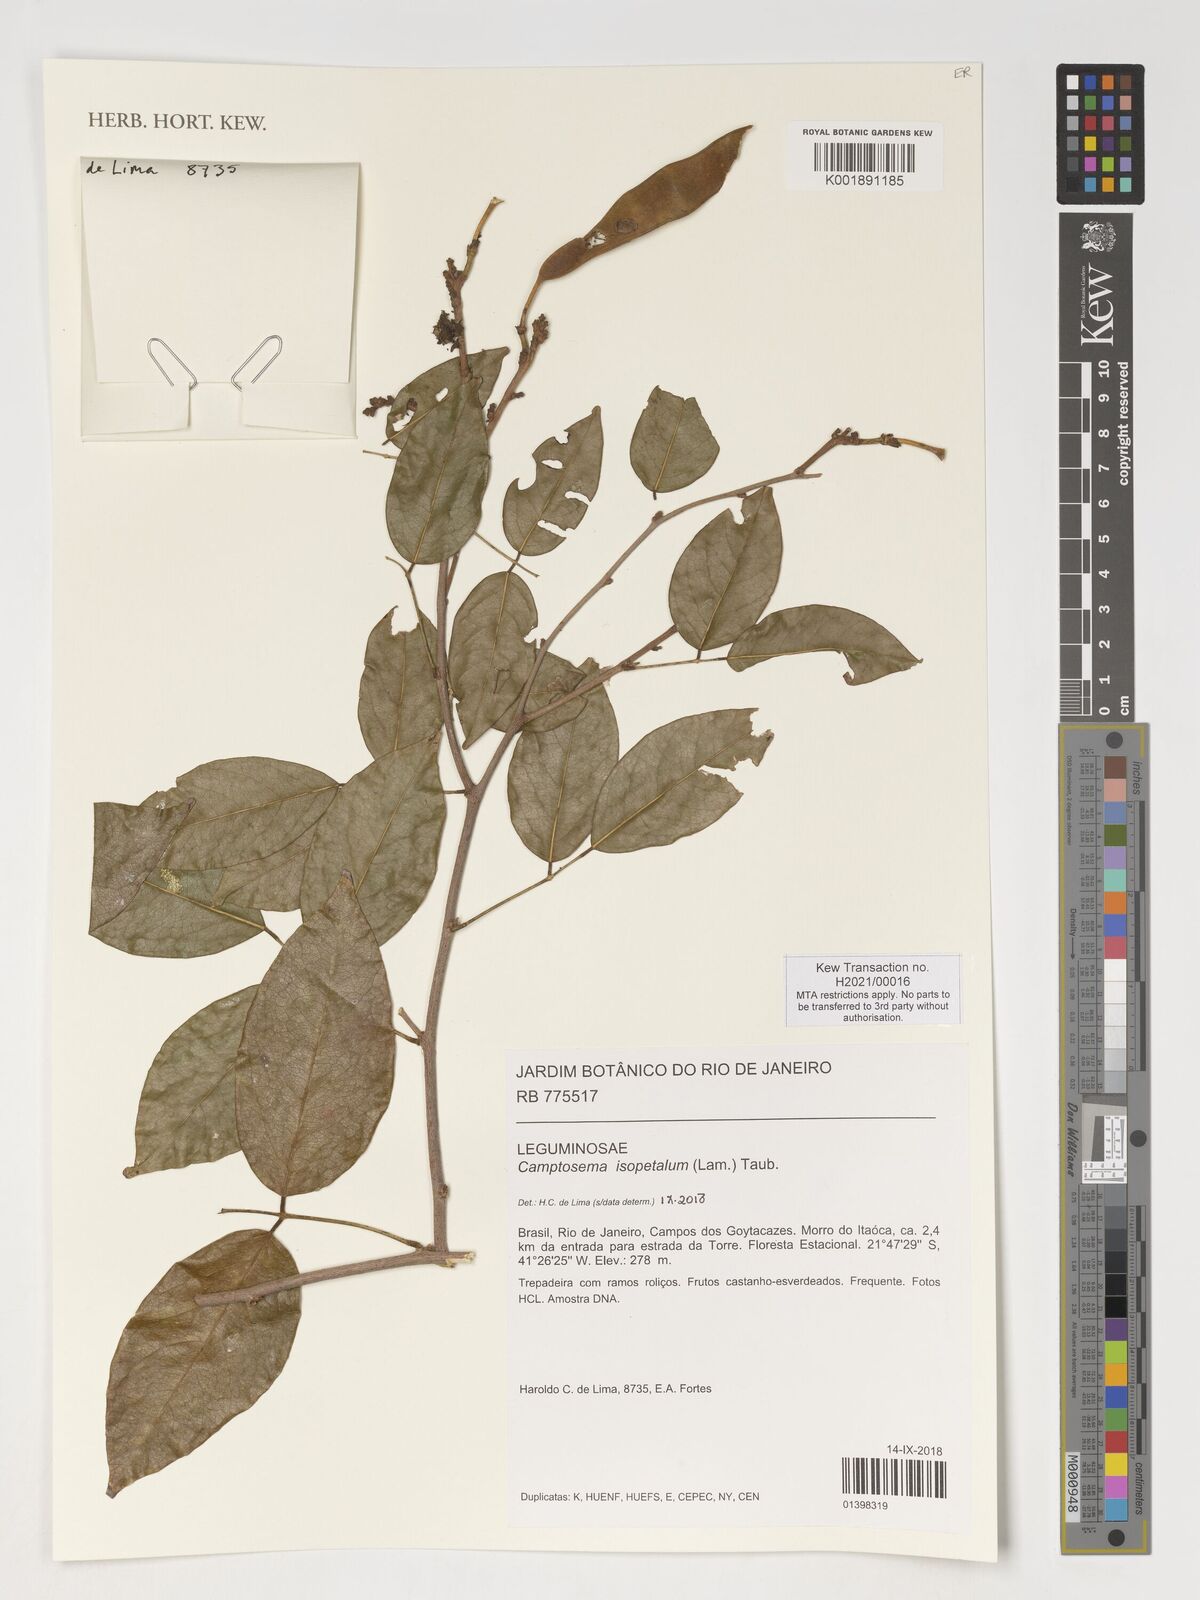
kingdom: Plantae
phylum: Tracheophyta
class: Magnoliopsida
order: Fabales
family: Fabaceae
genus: Cratylia
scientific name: Cratylia isopetala
